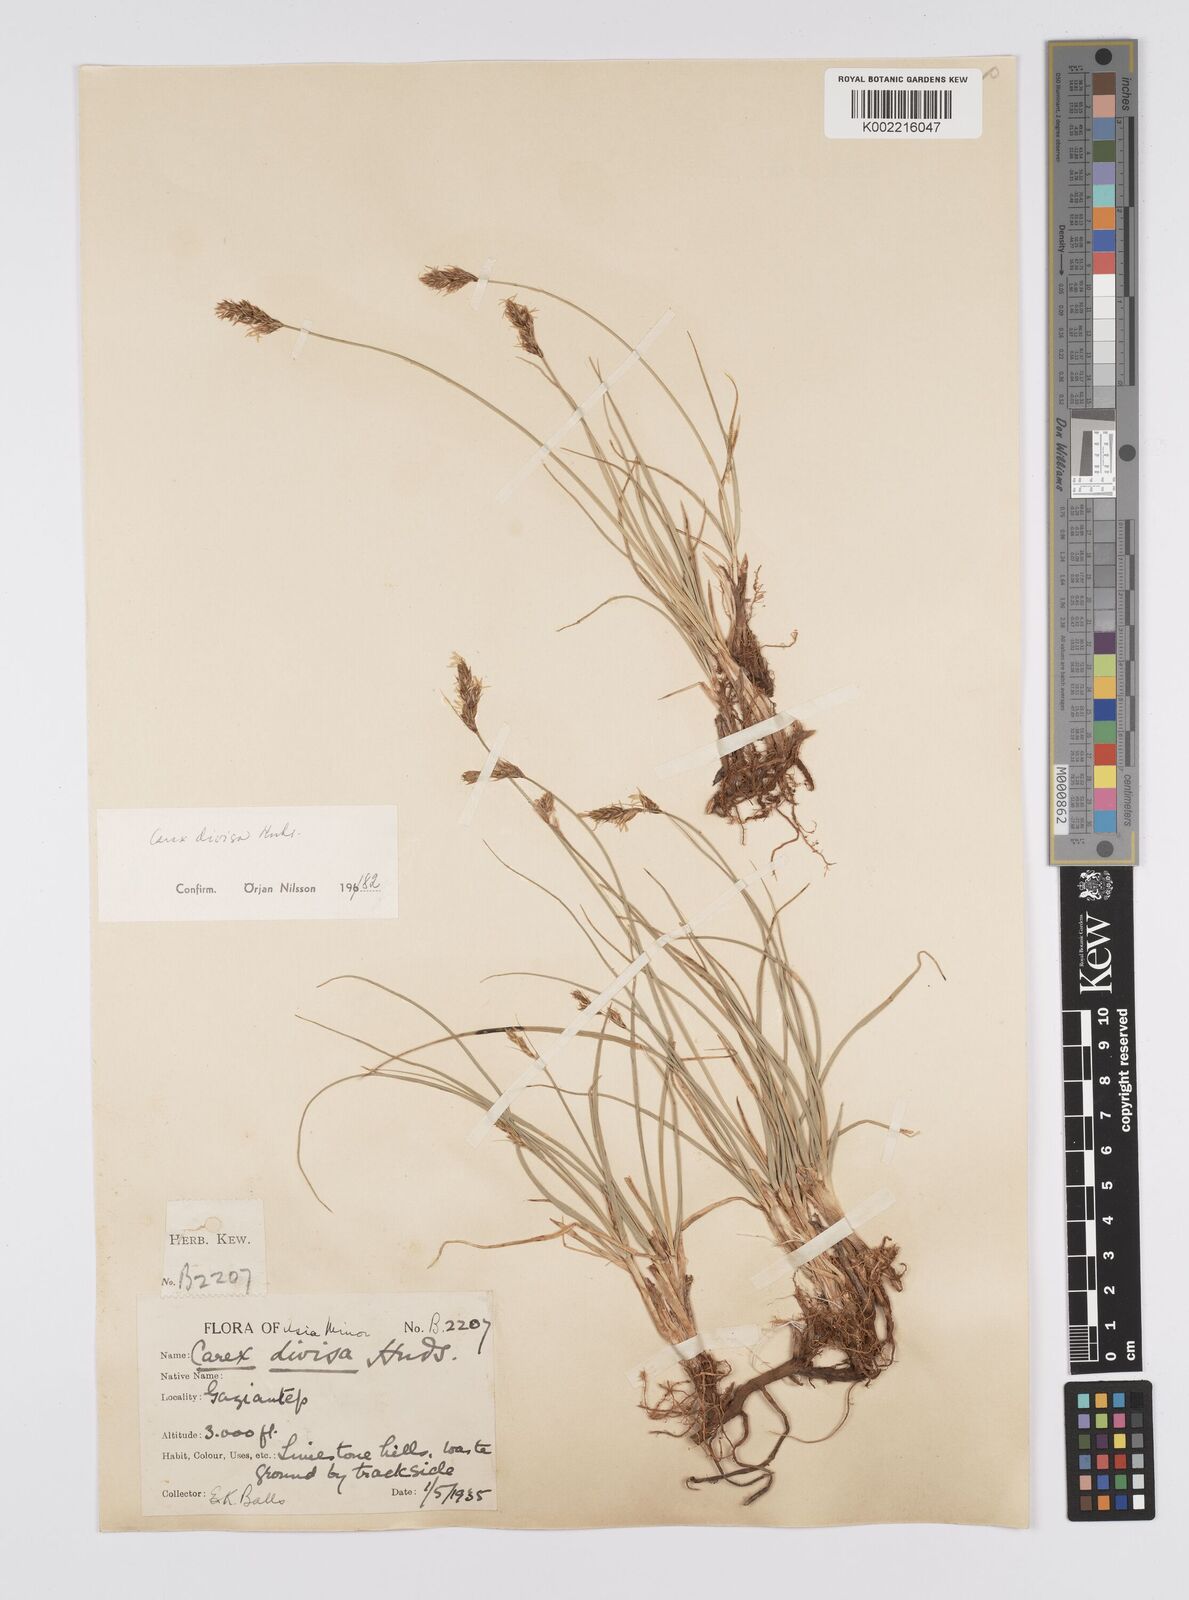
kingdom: Plantae
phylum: Tracheophyta
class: Liliopsida
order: Poales
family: Cyperaceae
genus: Carex
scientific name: Carex divisa
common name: Divided sedge
